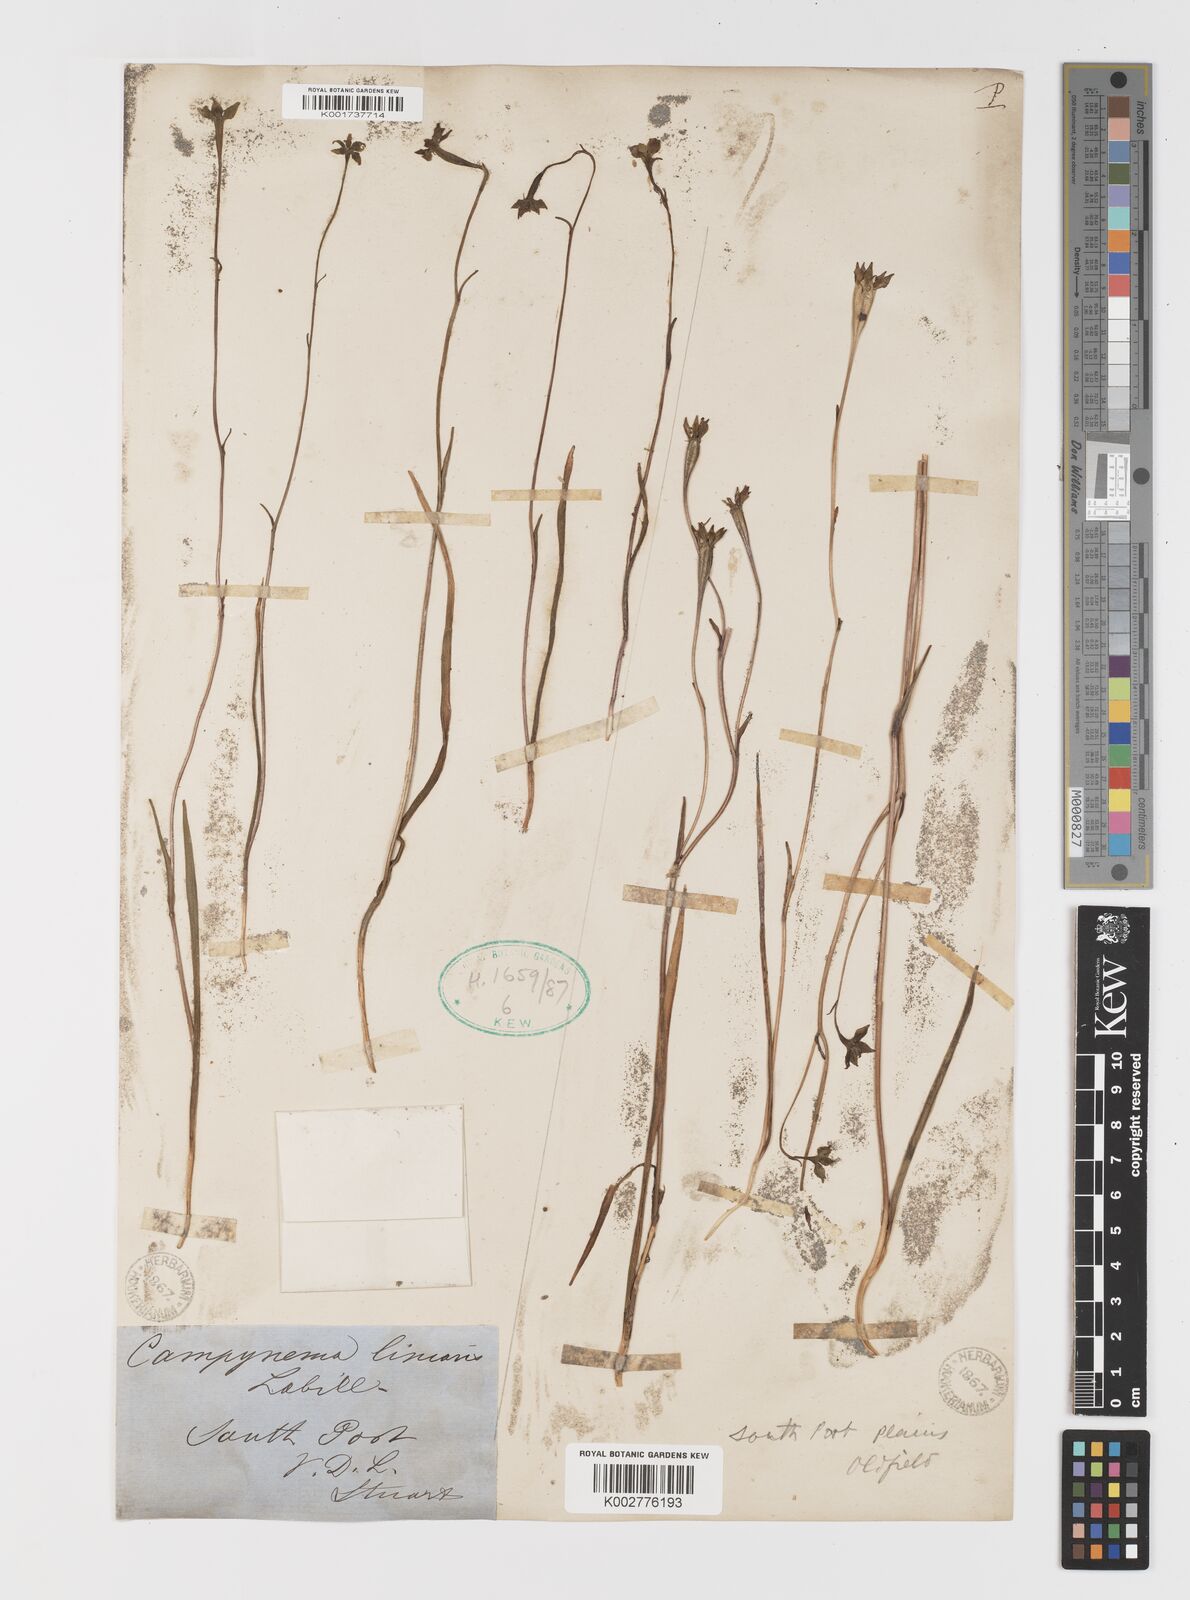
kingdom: Plantae
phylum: Tracheophyta
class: Liliopsida
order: Liliales
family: Campynemataceae
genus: Campynema
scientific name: Campynema lineare
